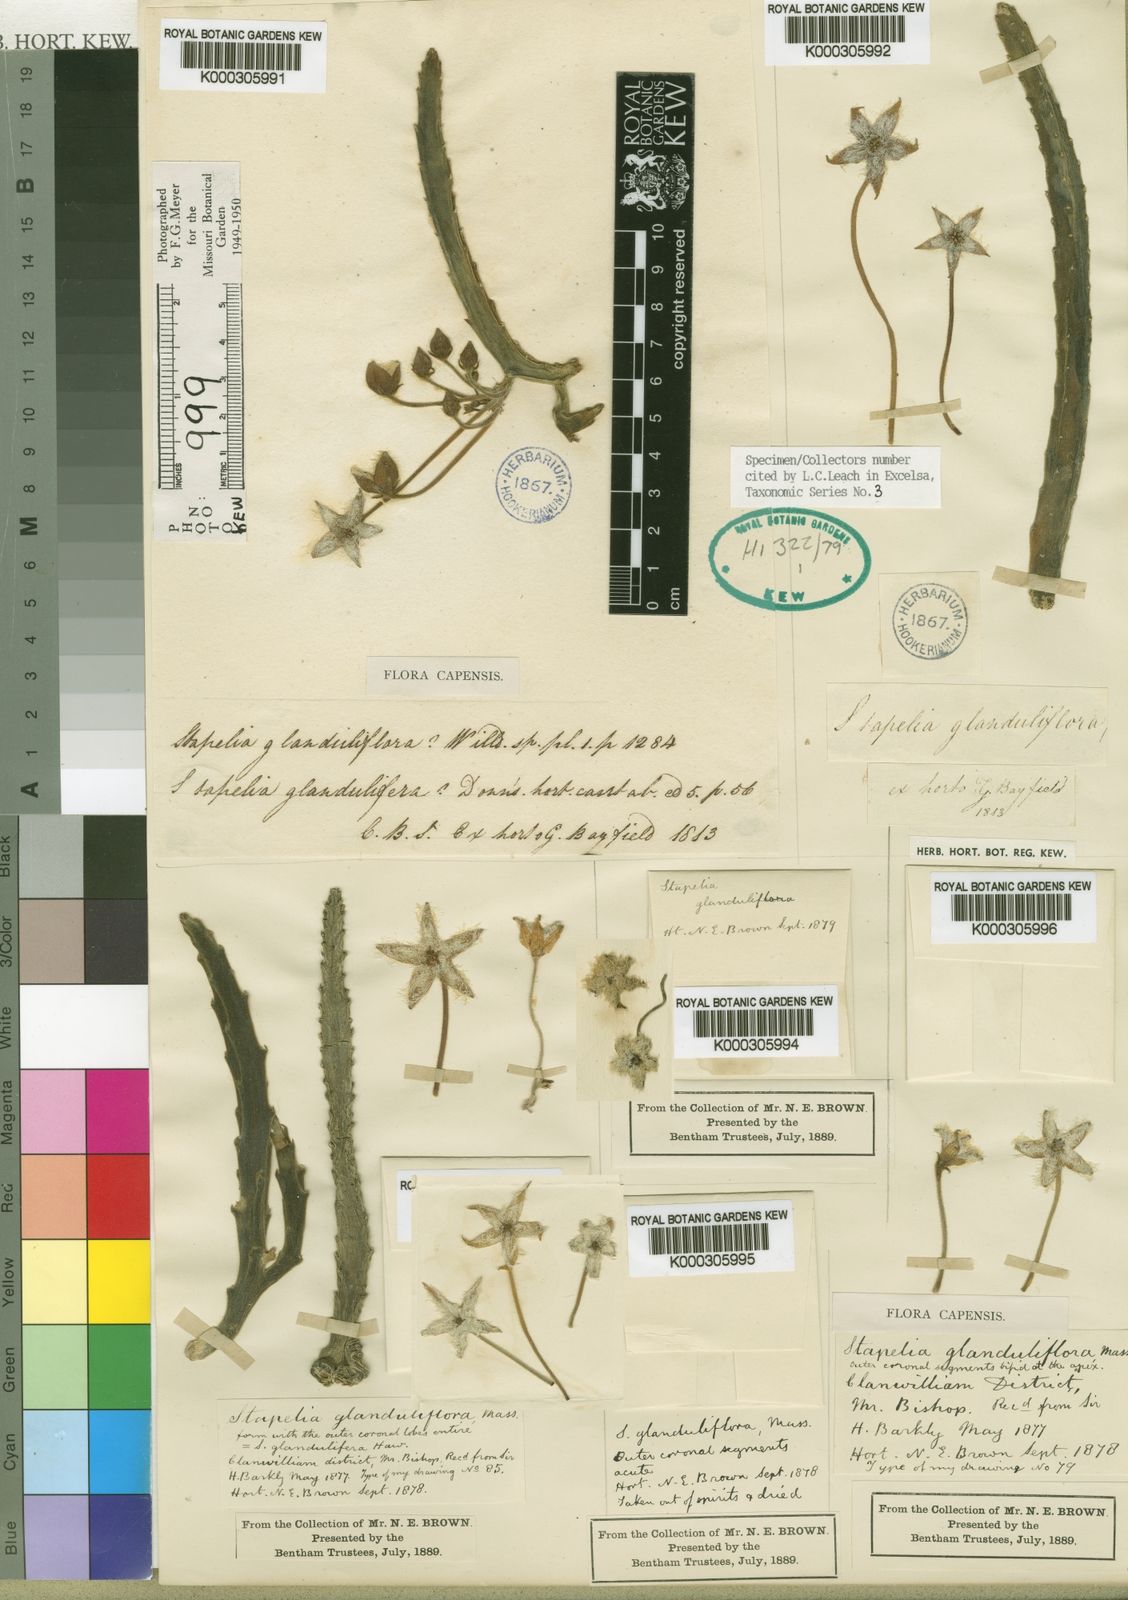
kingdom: Plantae
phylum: Tracheophyta
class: Magnoliopsida
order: Gentianales
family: Apocynaceae
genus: Ceropegia
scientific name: Ceropegia glanduliflora
